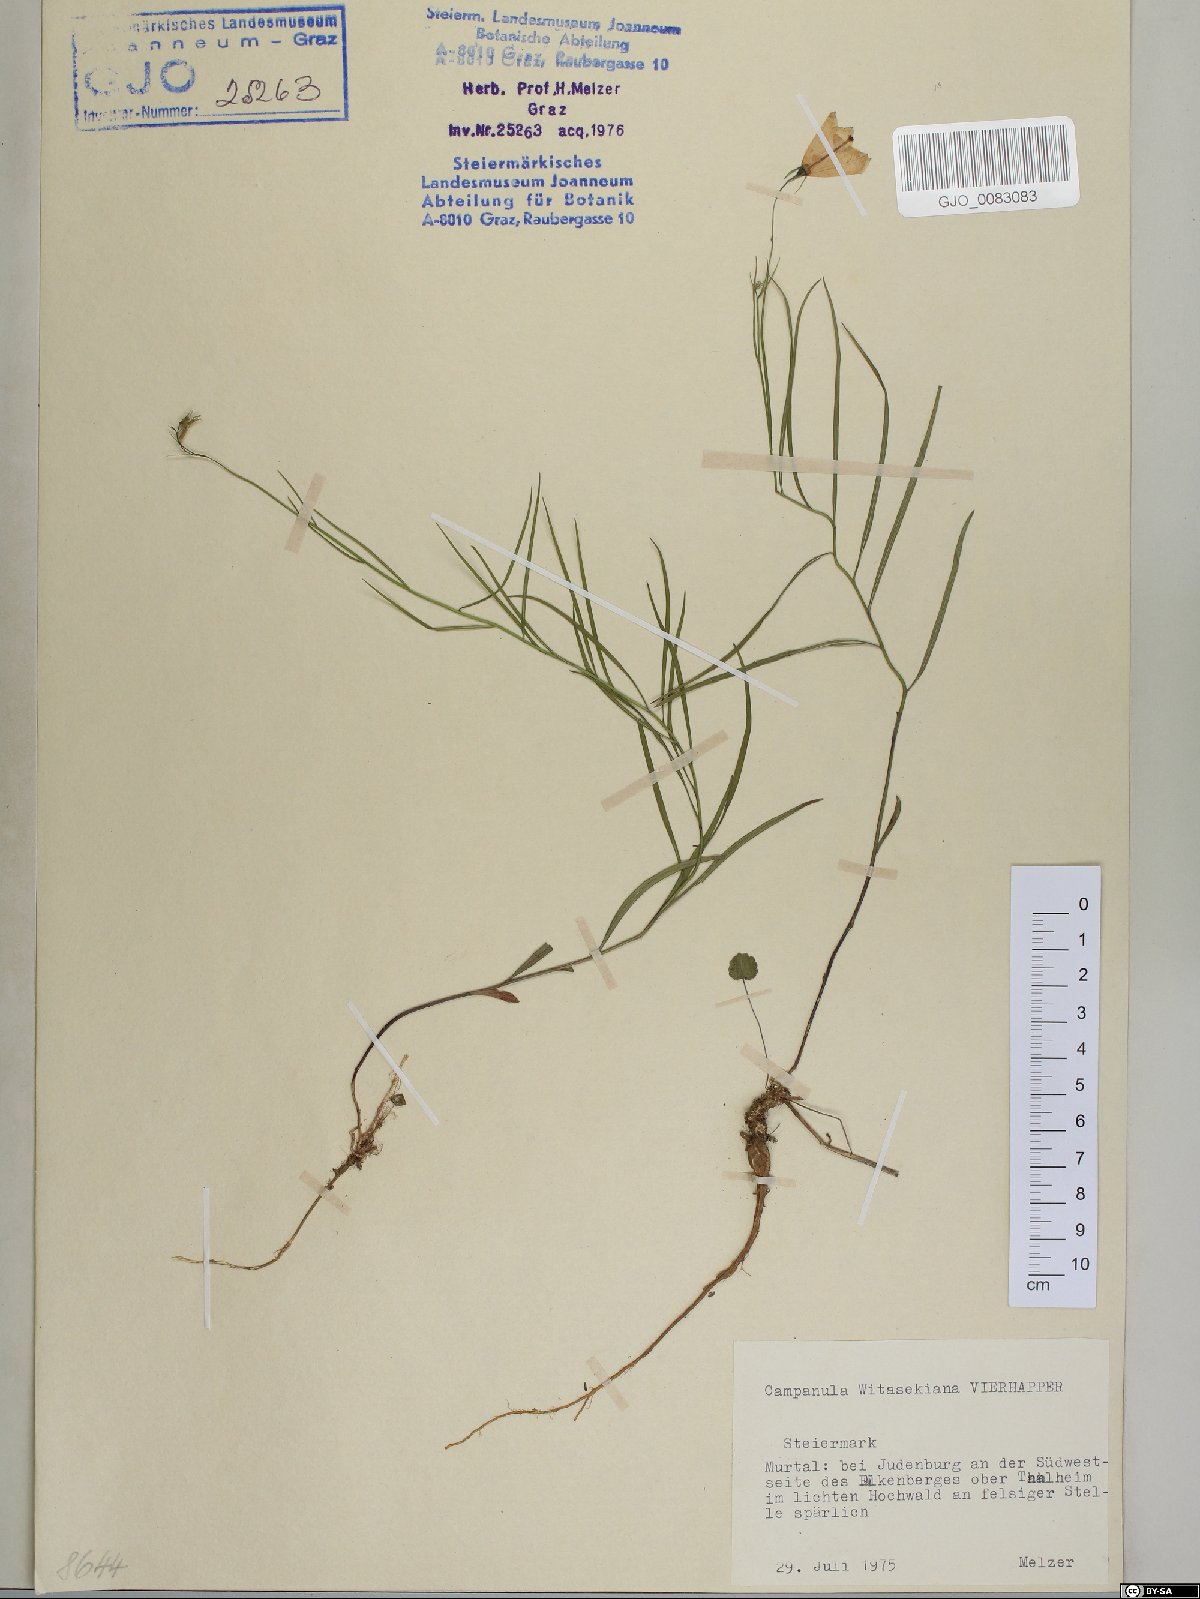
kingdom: Plantae
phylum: Tracheophyta
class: Magnoliopsida
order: Asterales
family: Campanulaceae
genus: Campanula
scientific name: Campanula witasekiana
